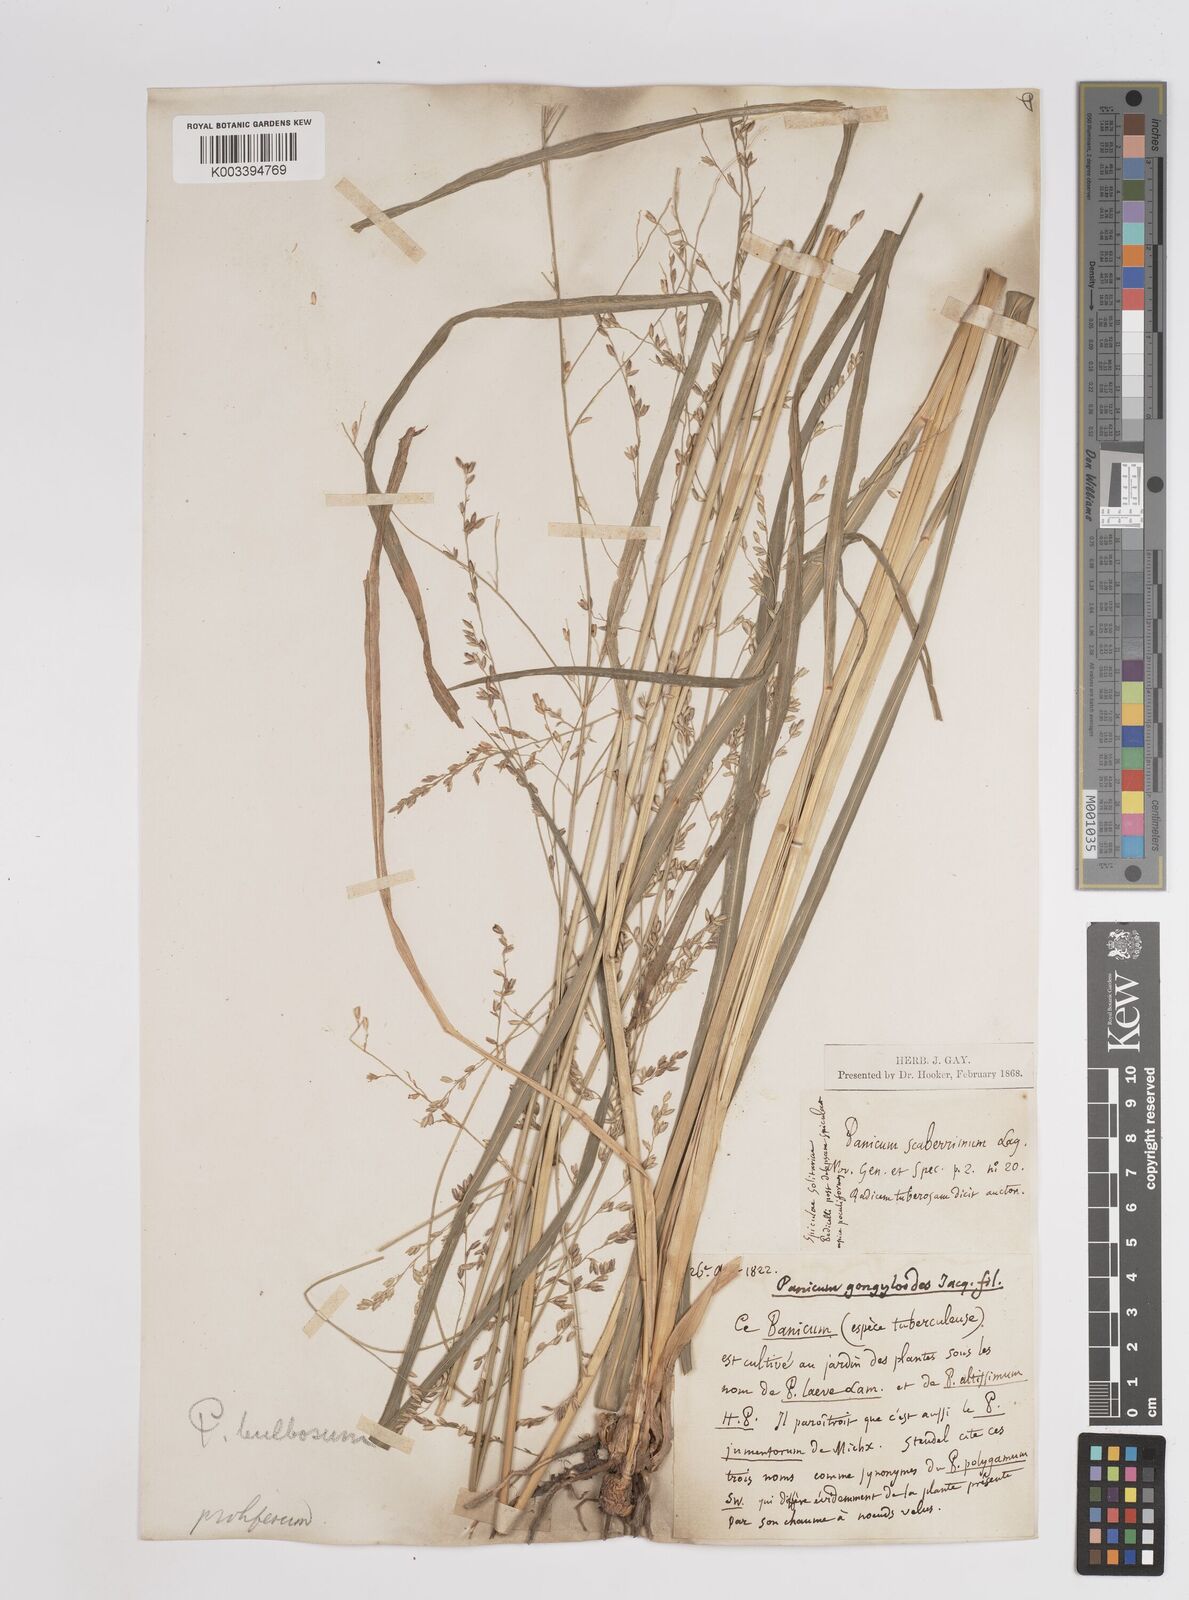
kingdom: Plantae
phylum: Tracheophyta
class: Liliopsida
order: Poales
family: Poaceae
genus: Zuloagaea
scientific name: Zuloagaea bulbosa
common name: Canyon panic grass
